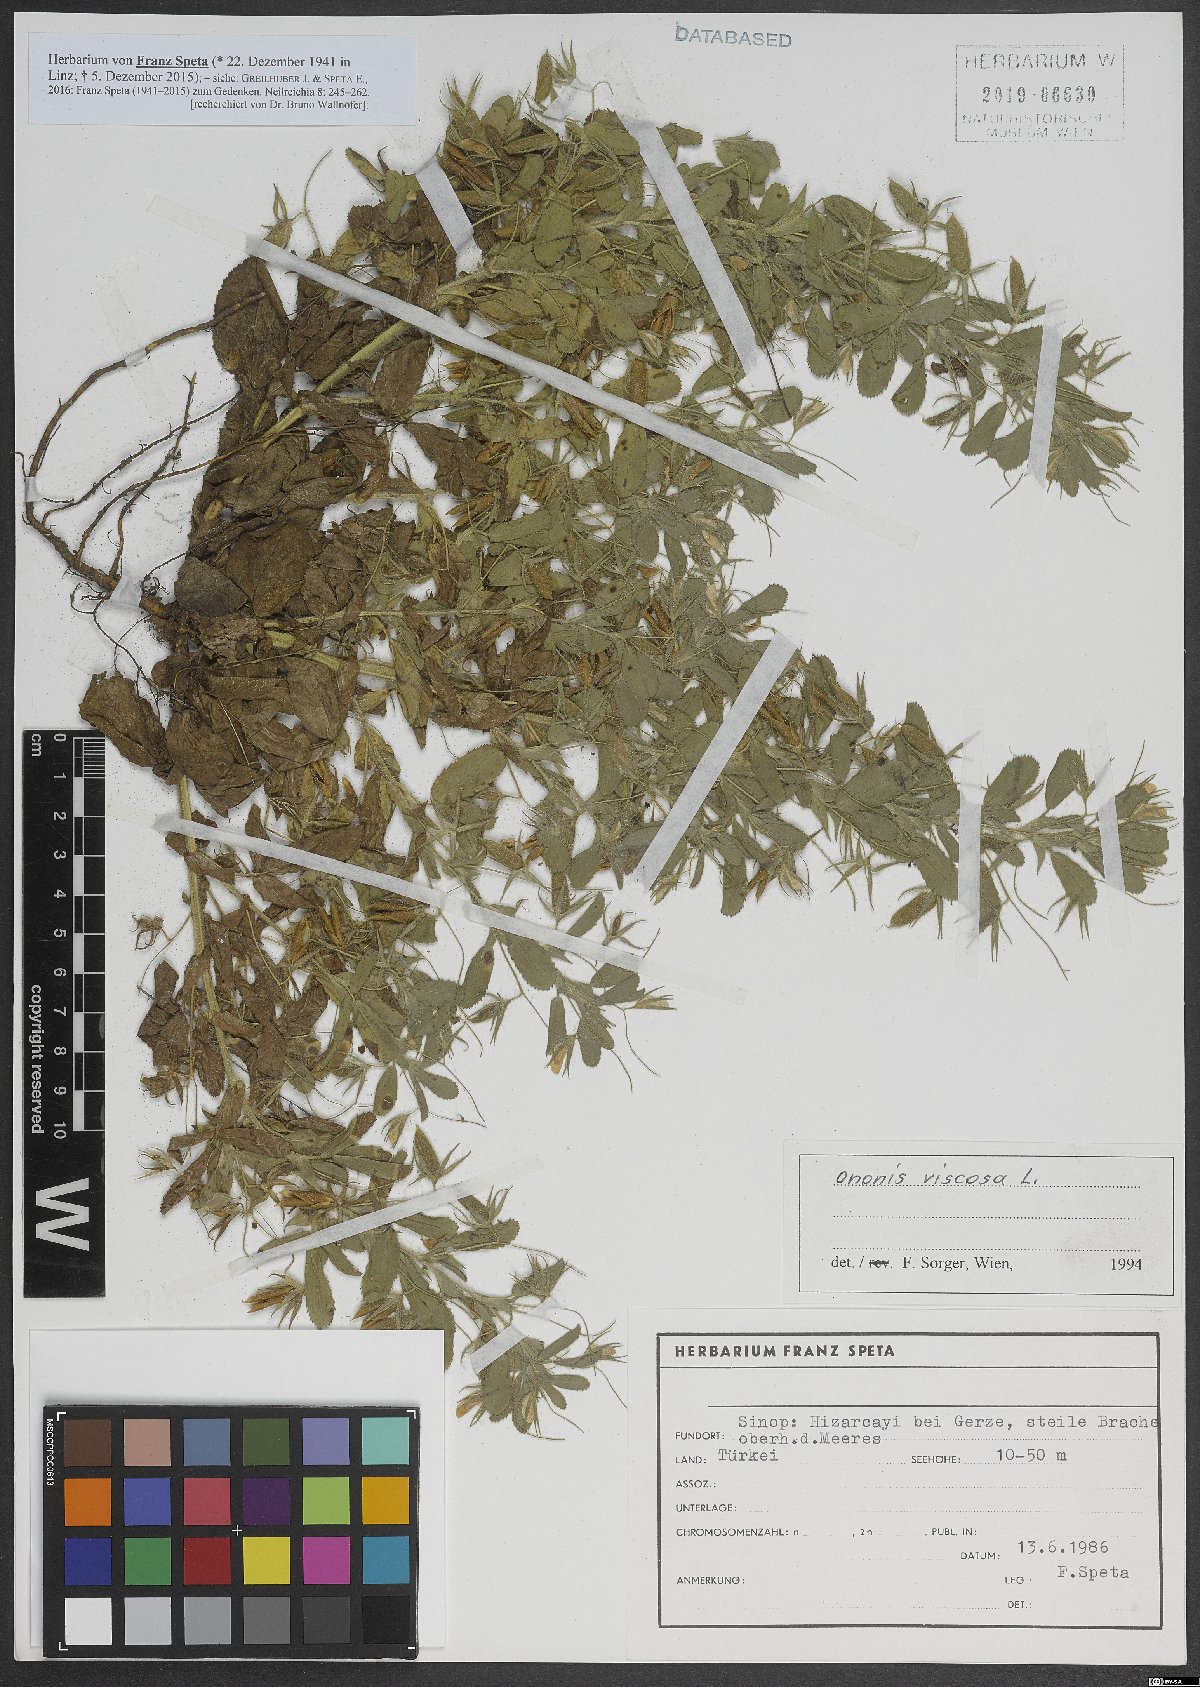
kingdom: Plantae
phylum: Tracheophyta
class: Magnoliopsida
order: Fabales
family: Fabaceae
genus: Ononis
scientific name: Ononis viscosa
